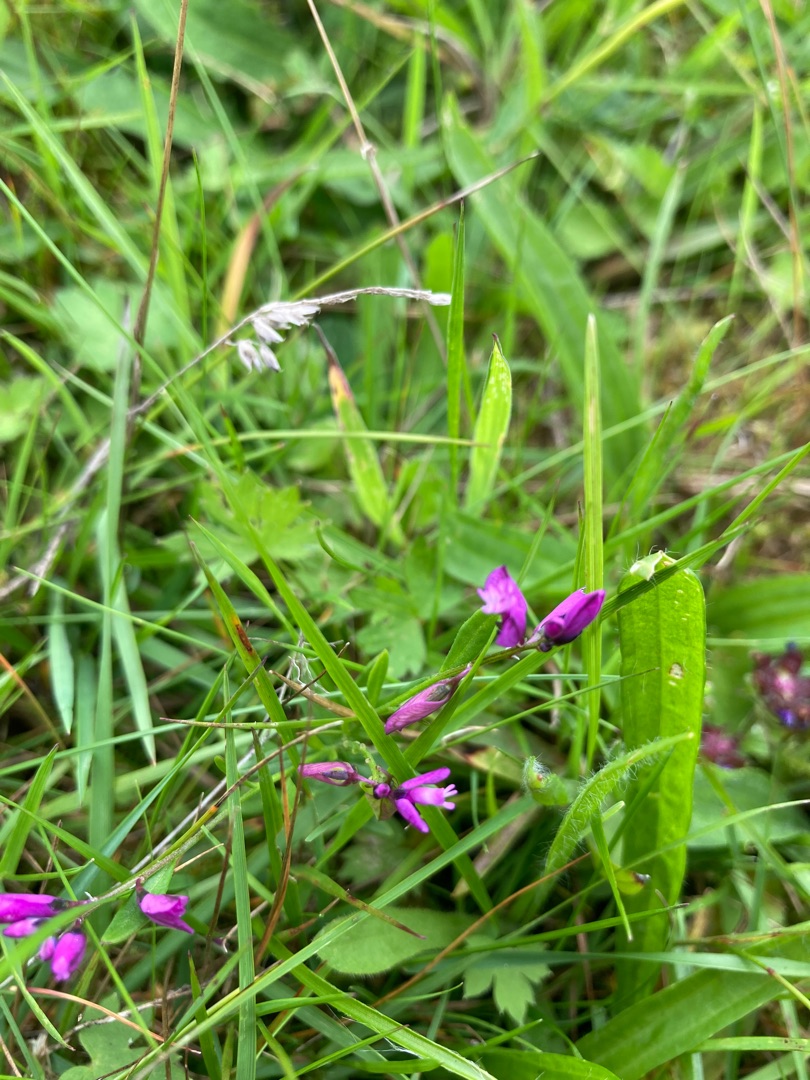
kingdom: Plantae
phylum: Tracheophyta
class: Magnoliopsida
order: Fabales
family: Polygalaceae
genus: Polygala
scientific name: Polygala serpyllifolia
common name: Spæd mælkeurt
